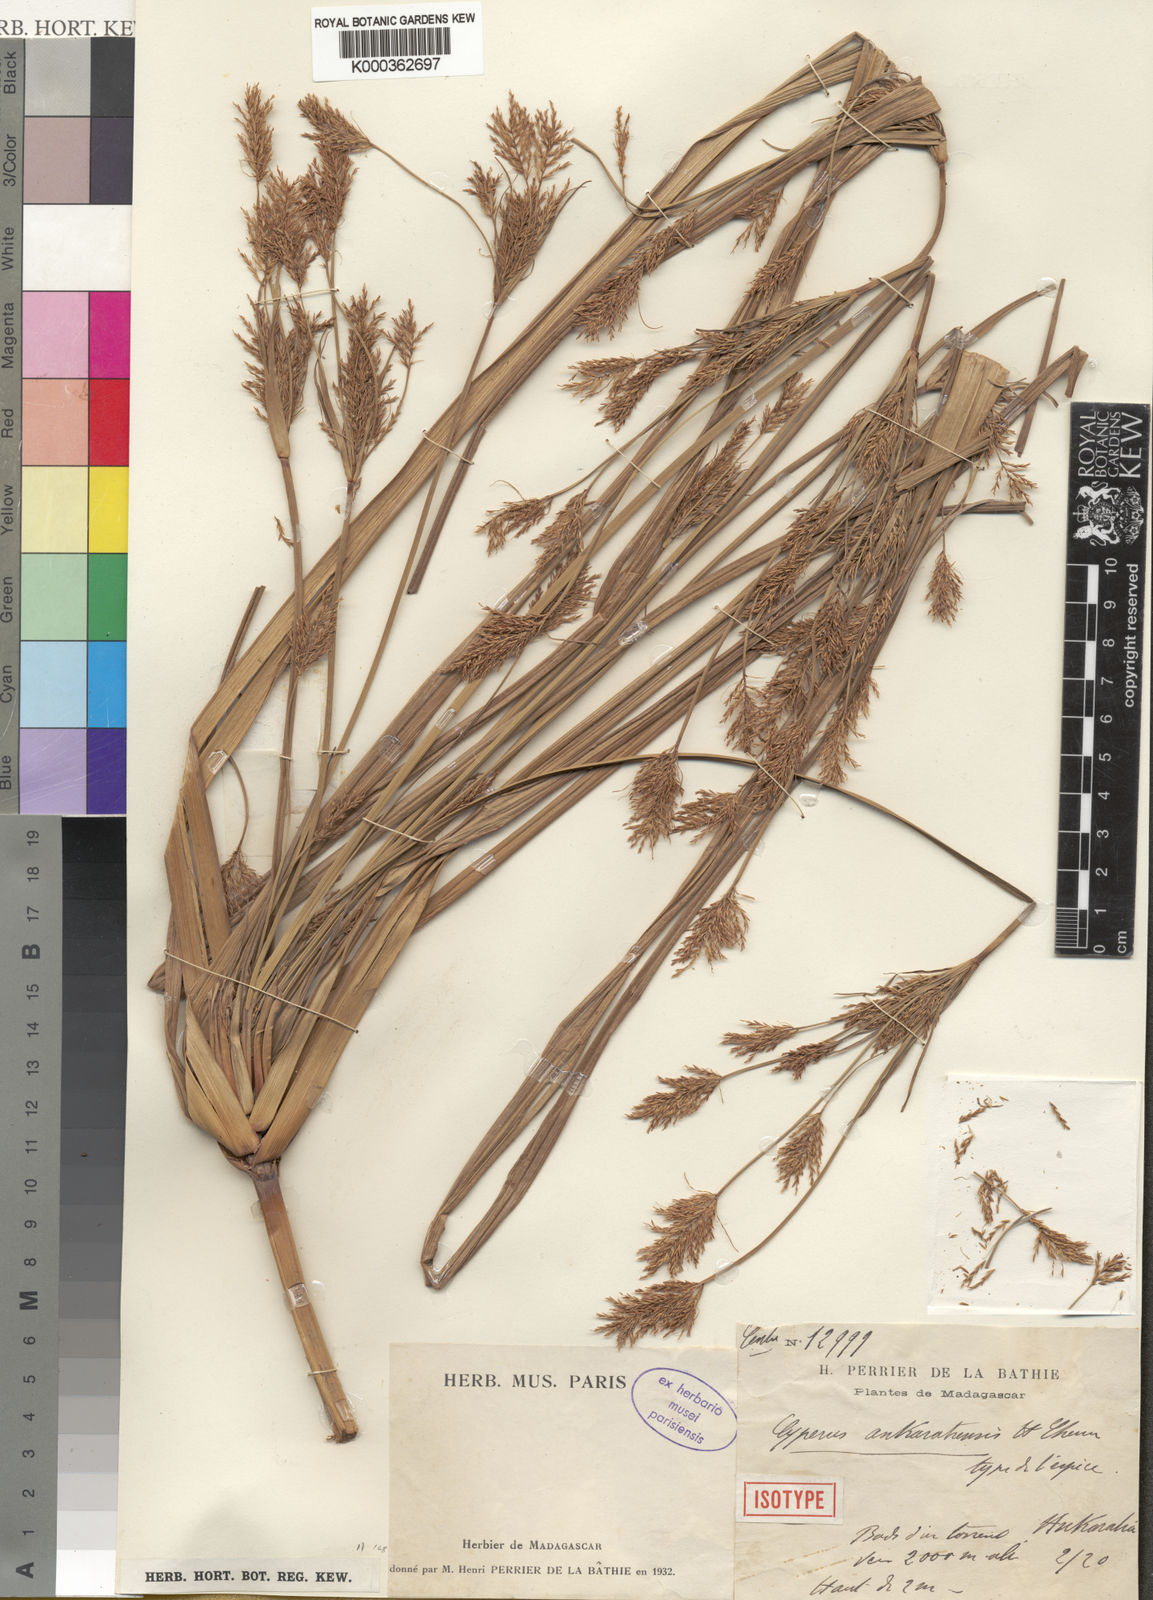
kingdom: Plantae
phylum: Tracheophyta
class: Liliopsida
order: Poales
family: Cyperaceae
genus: Cyperus
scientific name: Cyperus ankaratrensis
